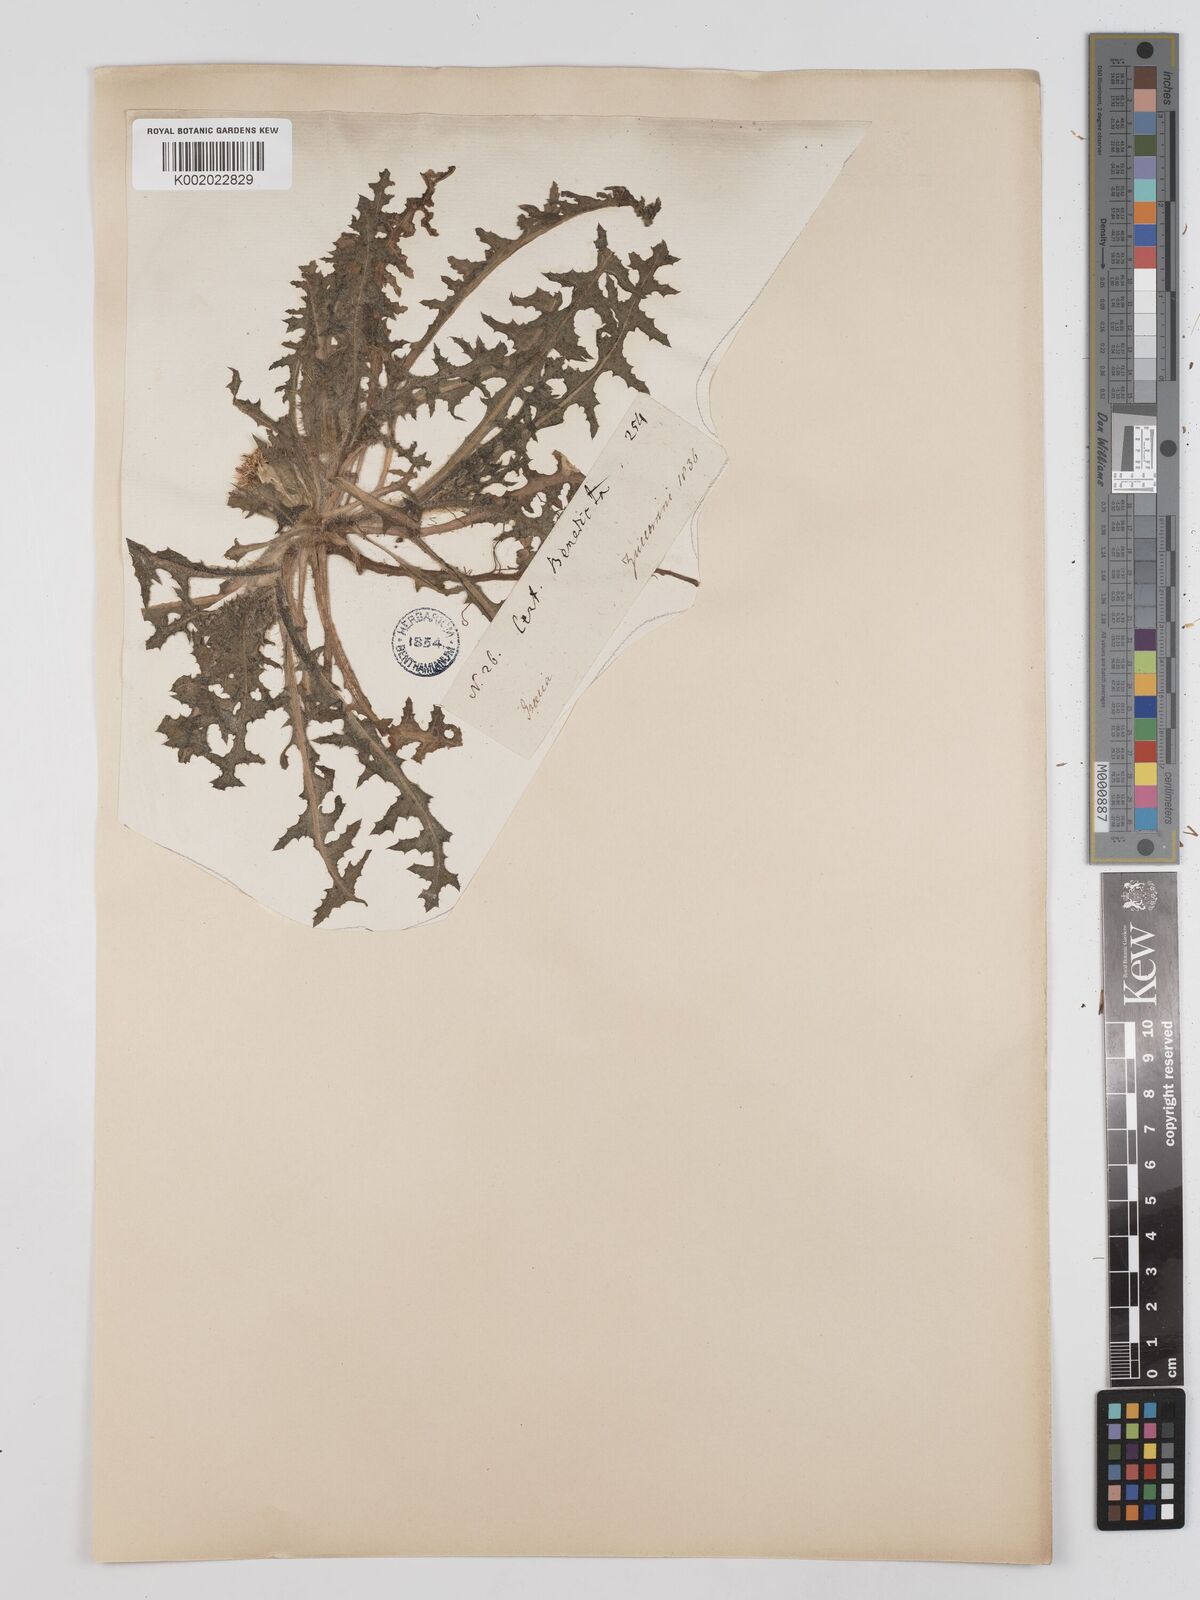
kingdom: Plantae
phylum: Tracheophyta
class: Magnoliopsida
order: Asterales
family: Asteraceae
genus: Centaurea
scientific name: Centaurea benedicta
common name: Blessed thistle
